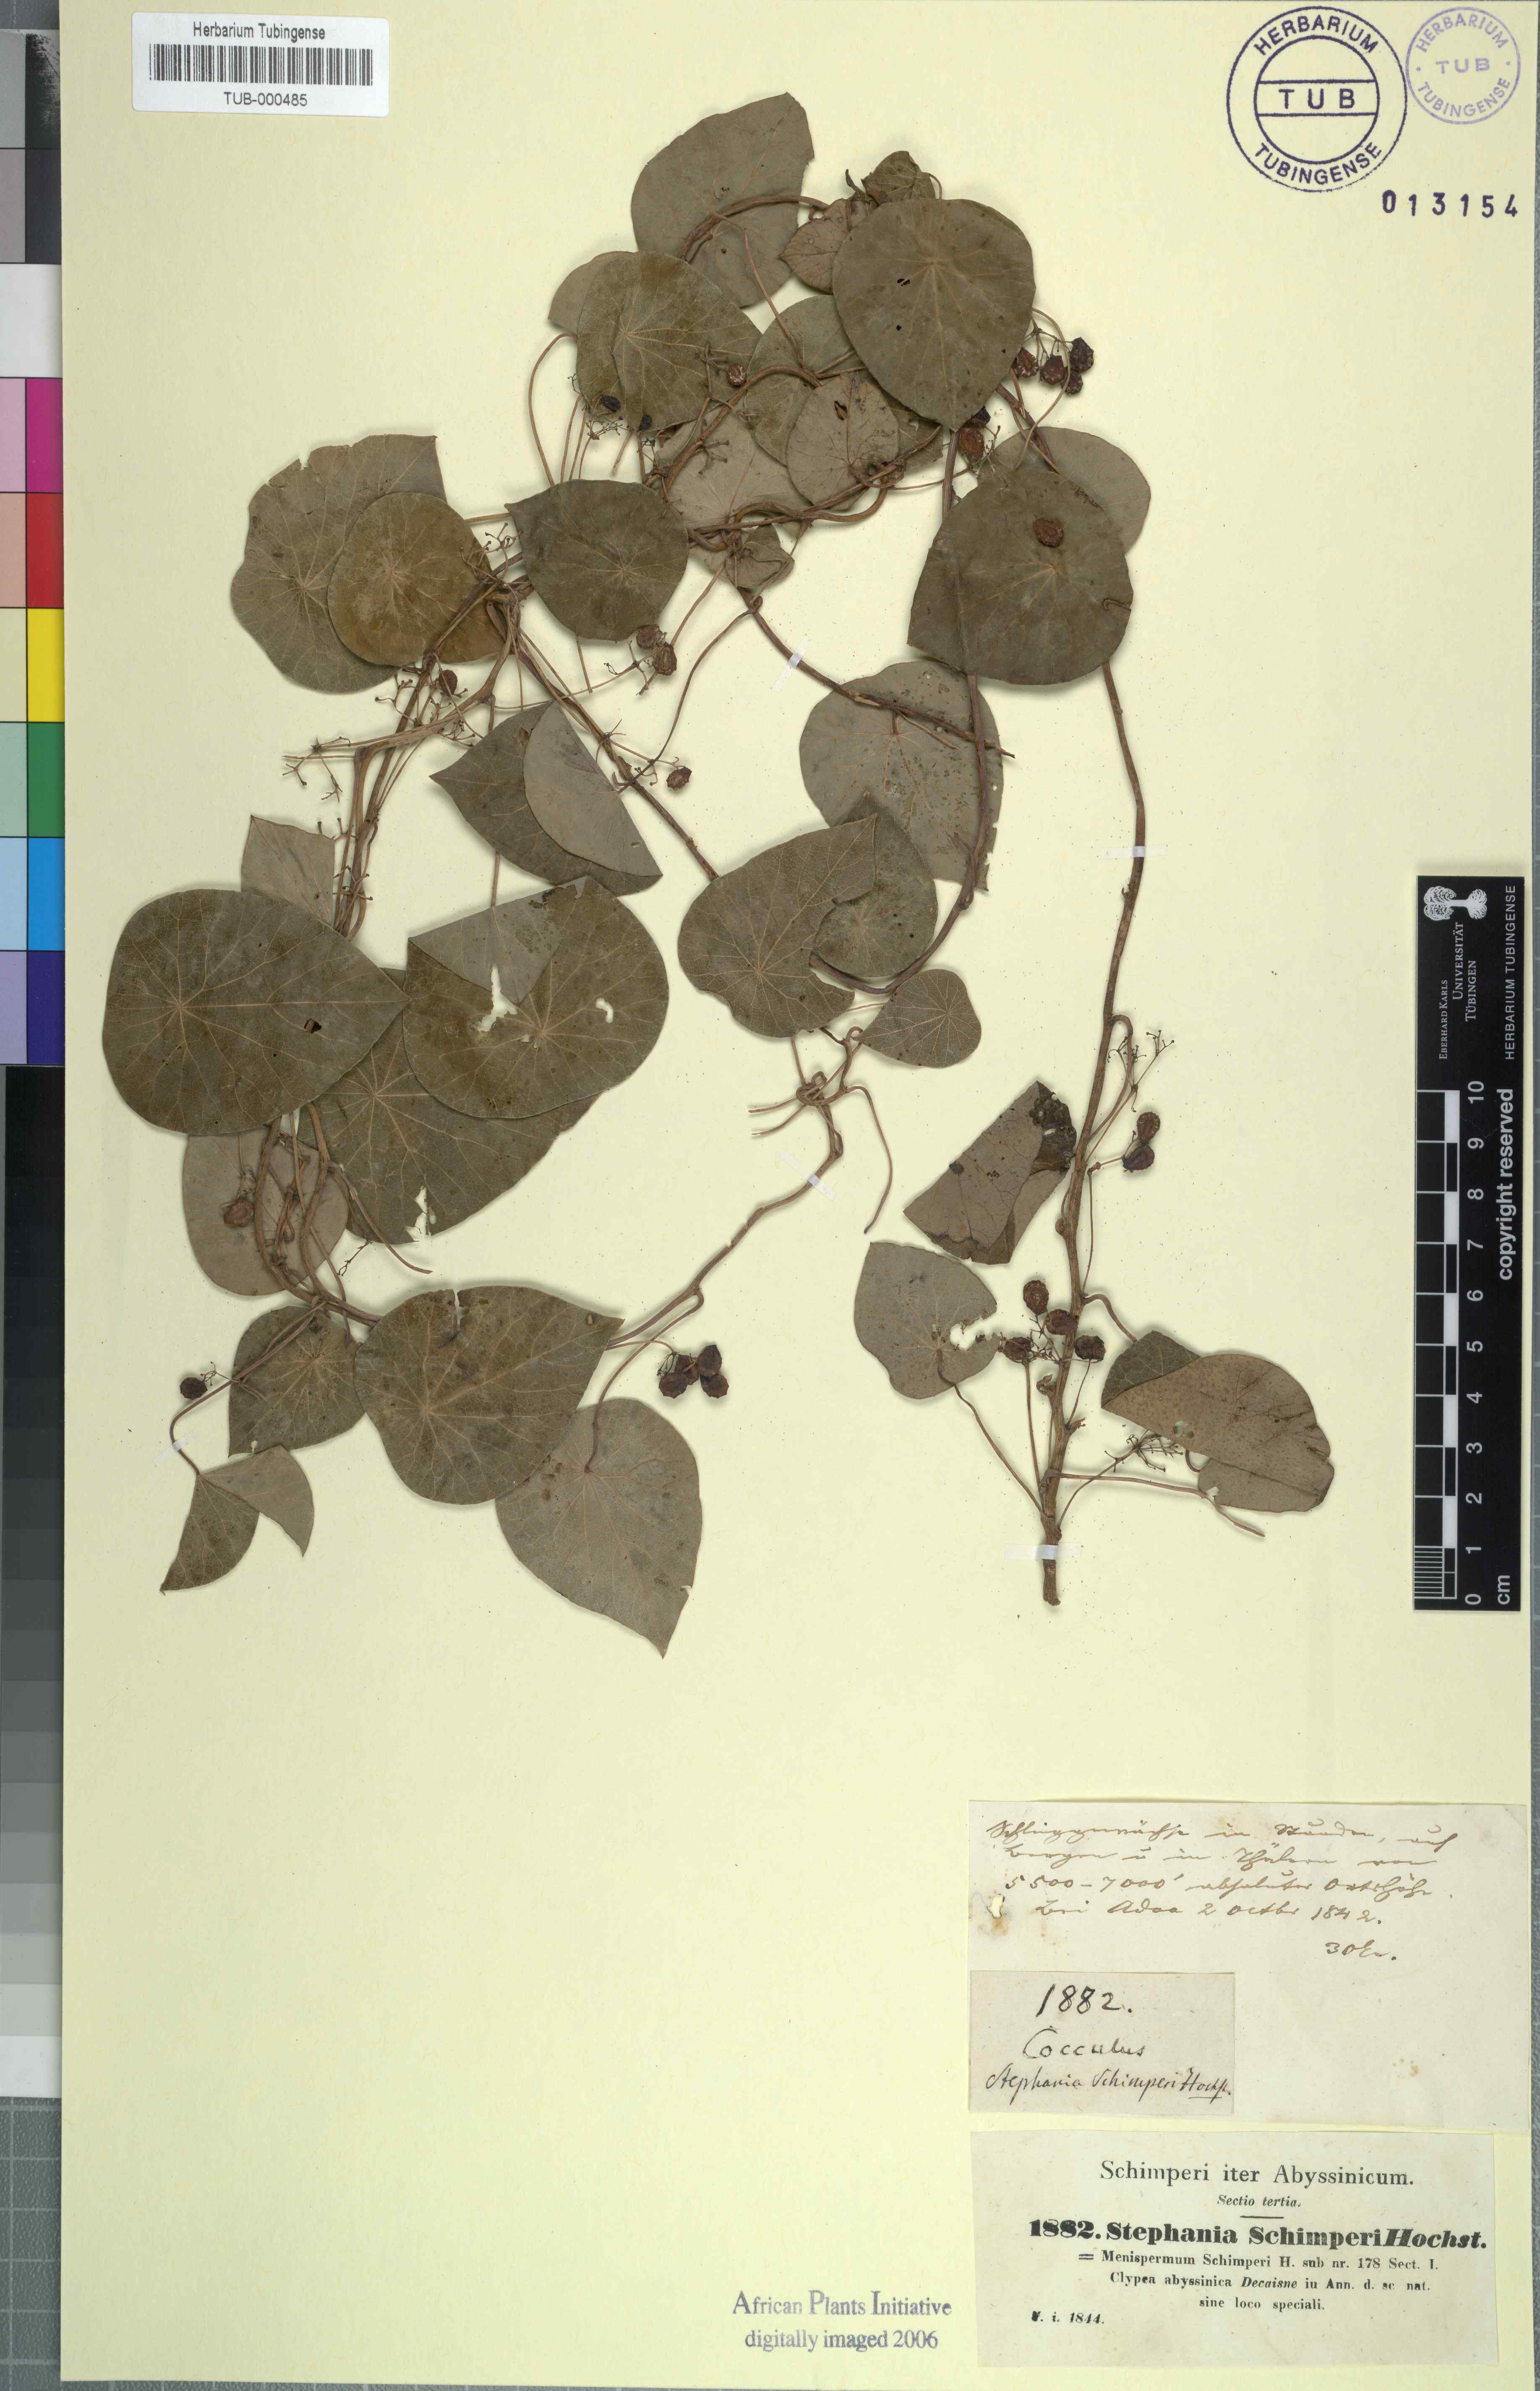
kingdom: Plantae
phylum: Tracheophyta
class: Magnoliopsida
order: Ranunculales
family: Menispermaceae
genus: Stephania
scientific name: Stephania abyssinica
